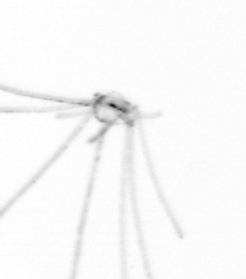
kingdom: Animalia
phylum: Cnidaria
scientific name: Cnidaria
